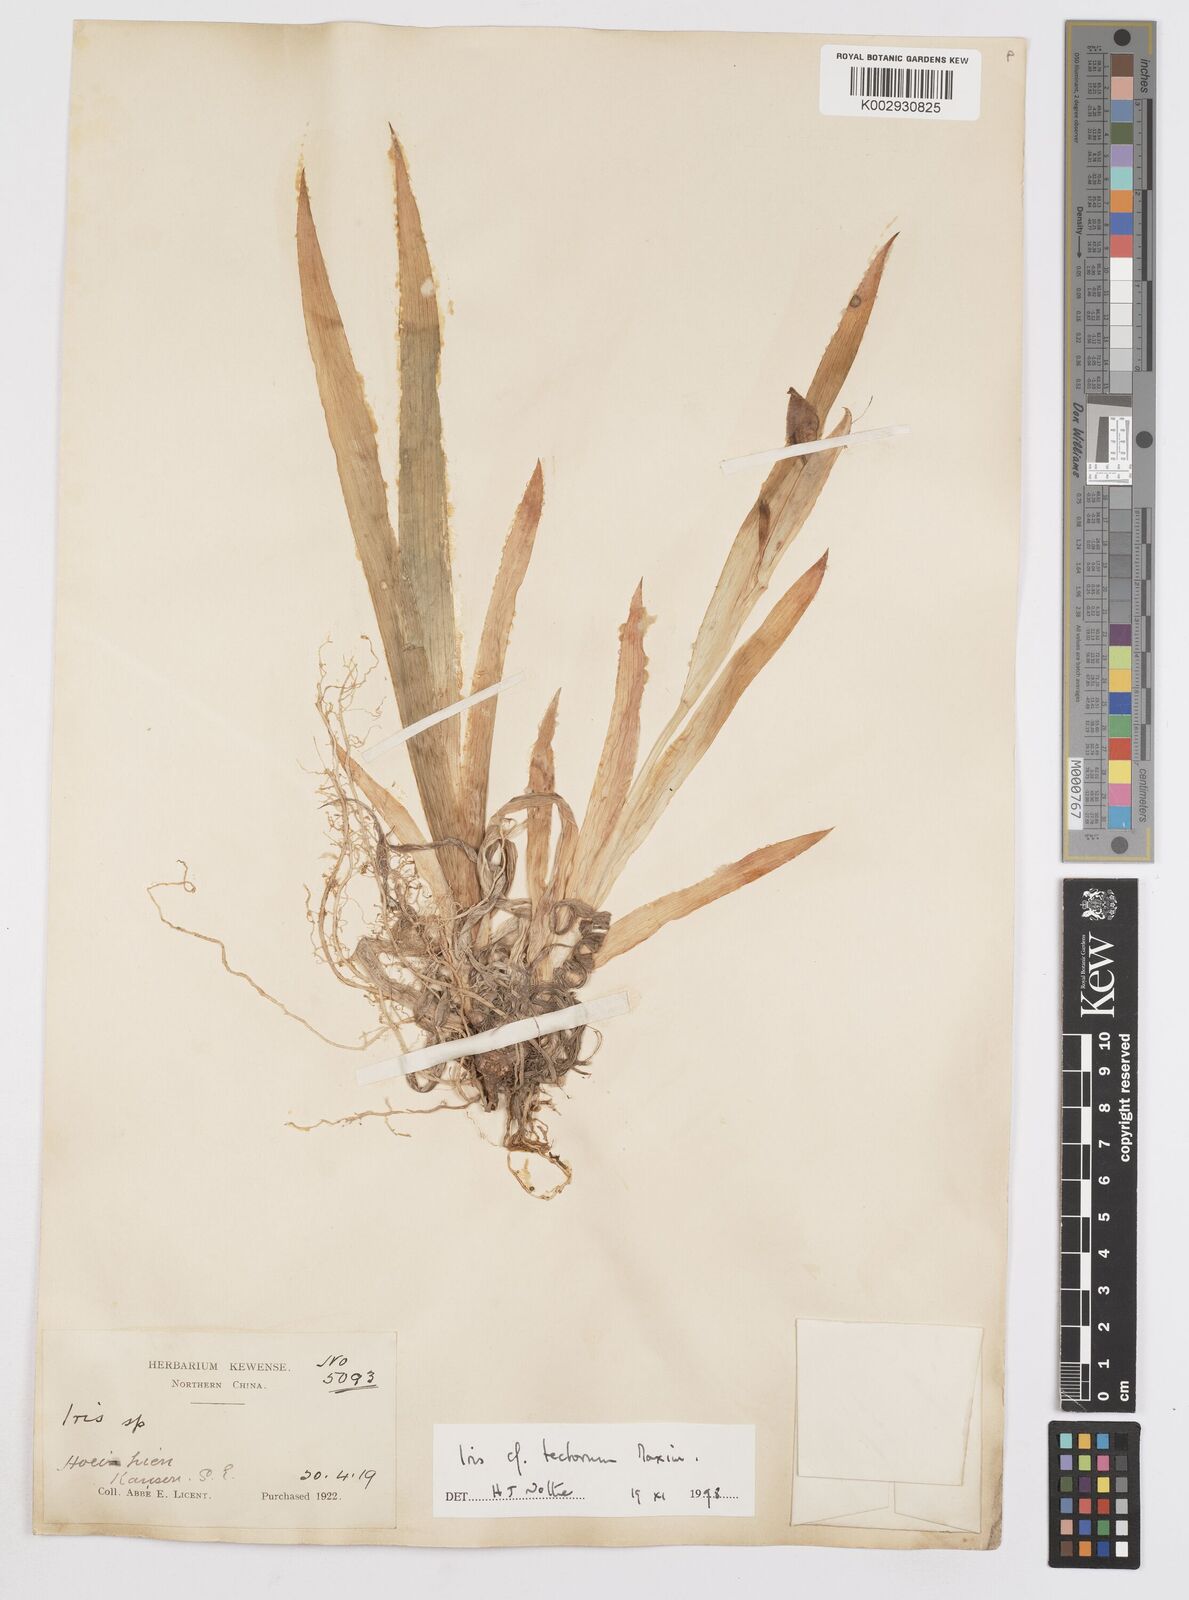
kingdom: Plantae
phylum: Tracheophyta
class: Liliopsida
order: Asparagales
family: Iridaceae
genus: Iris
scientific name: Iris tectorum
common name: Wall iris
